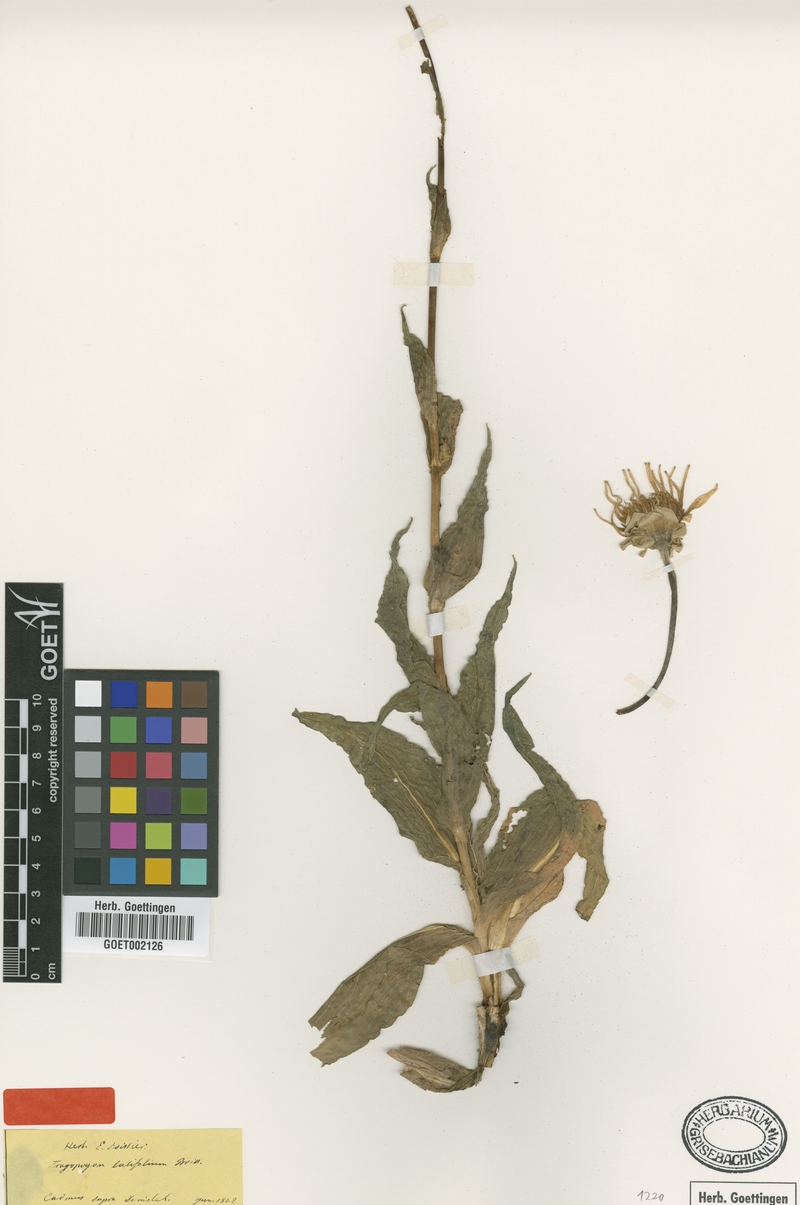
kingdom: Plantae
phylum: Tracheophyta
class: Magnoliopsida
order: Asterales
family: Asteraceae
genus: Tragopogon
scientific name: Tragopogon latifolius
